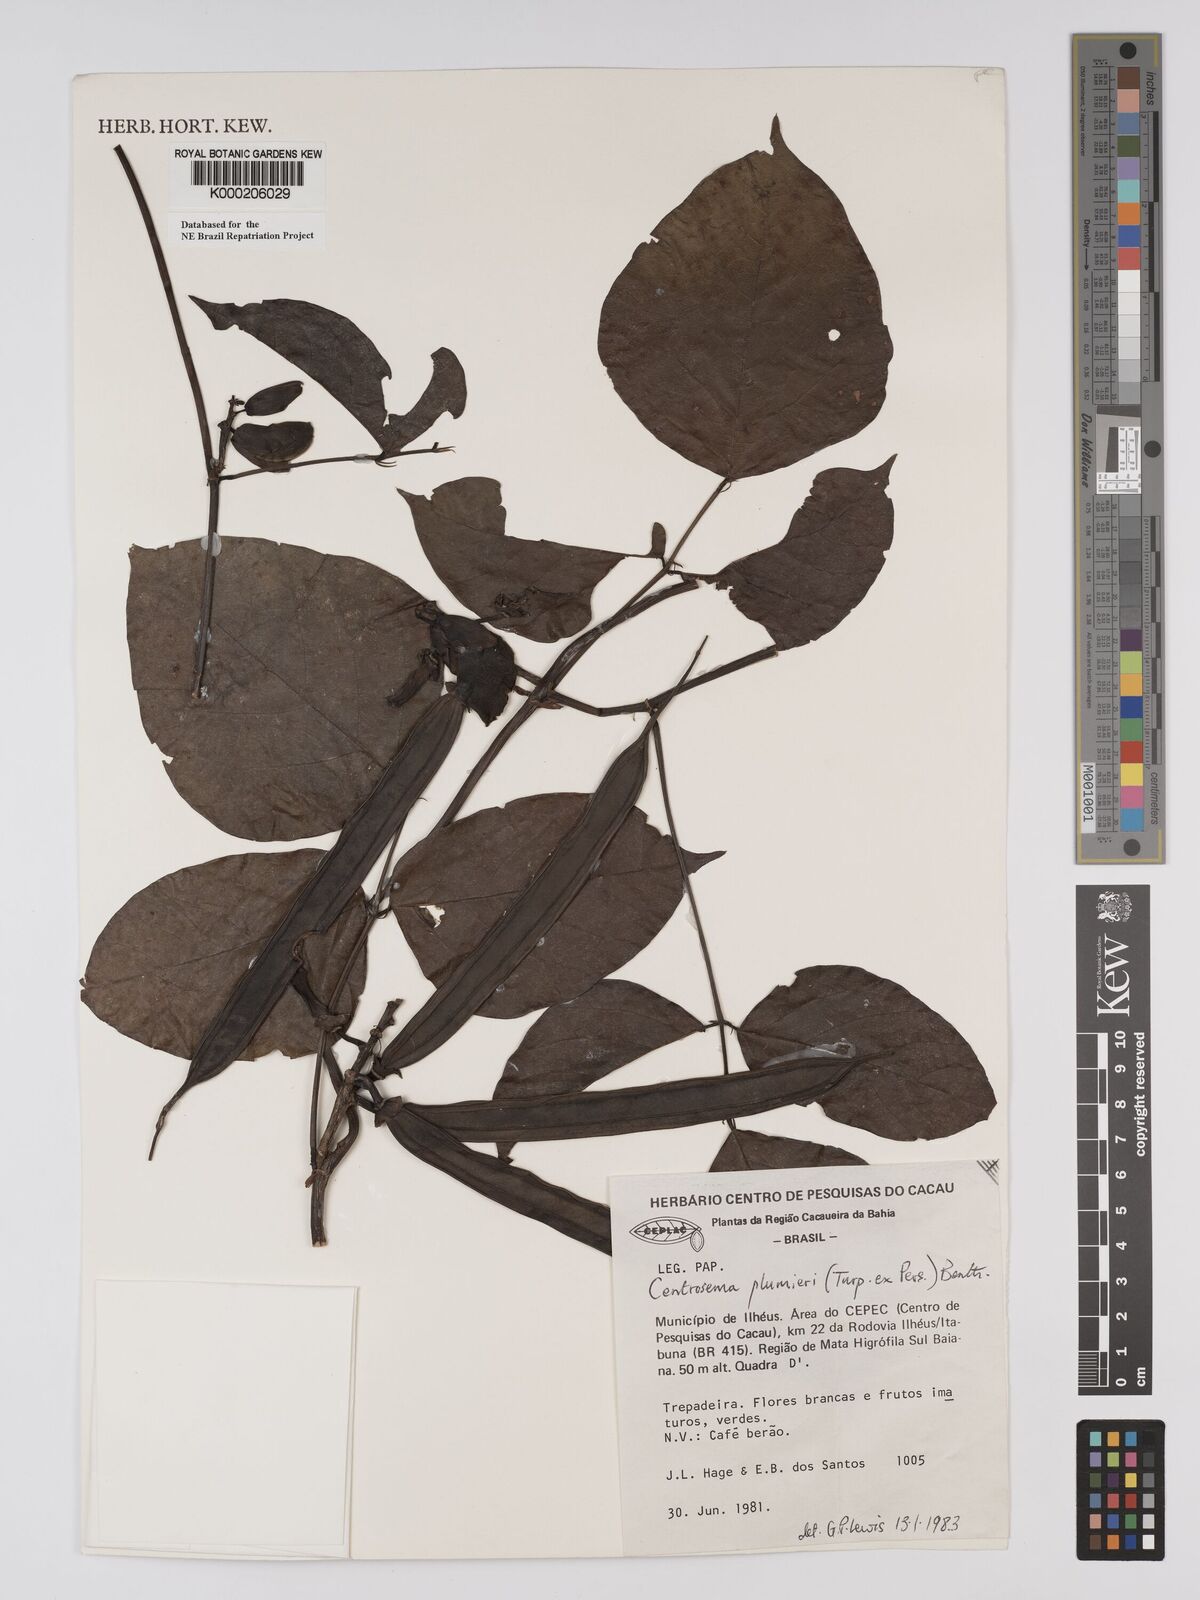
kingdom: Plantae
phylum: Tracheophyta
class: Magnoliopsida
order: Fabales
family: Fabaceae
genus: Centrosema
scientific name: Centrosema plumieri
